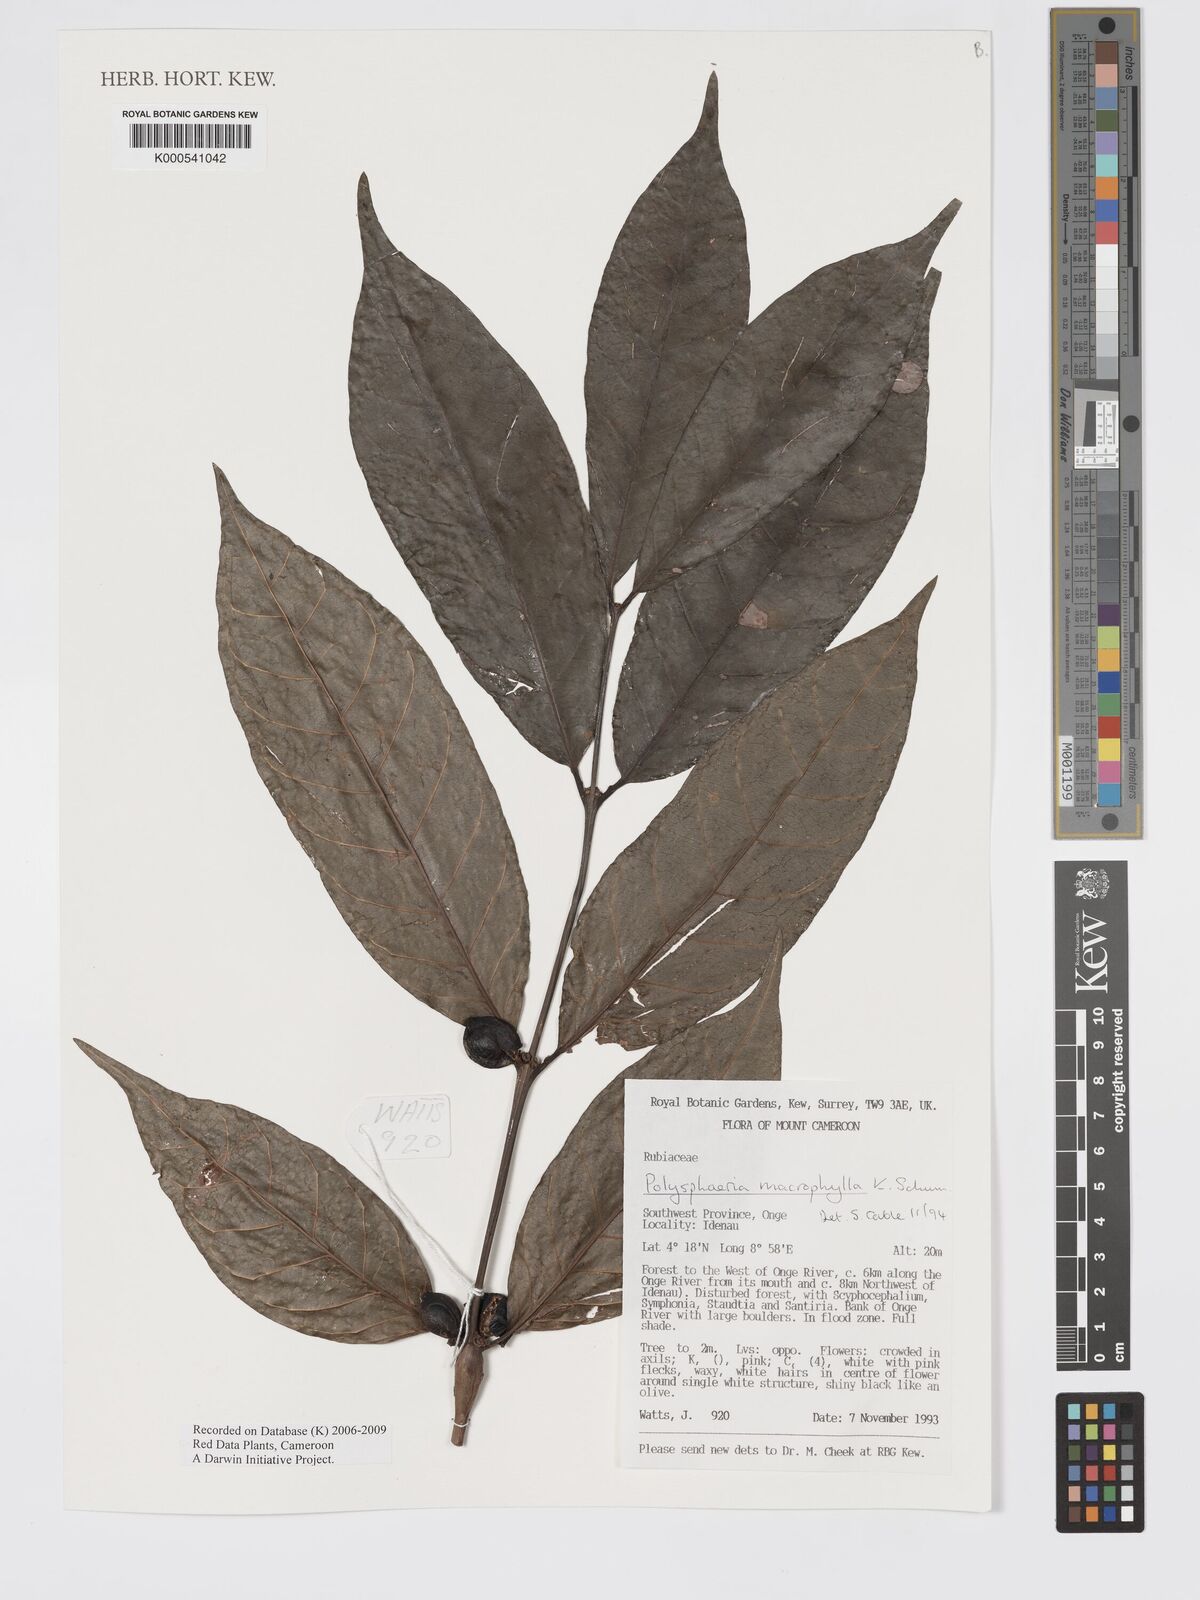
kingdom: Plantae
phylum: Tracheophyta
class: Magnoliopsida
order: Gentianales
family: Rubiaceae
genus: Polysphaeria
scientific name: Polysphaeria macrophylla
